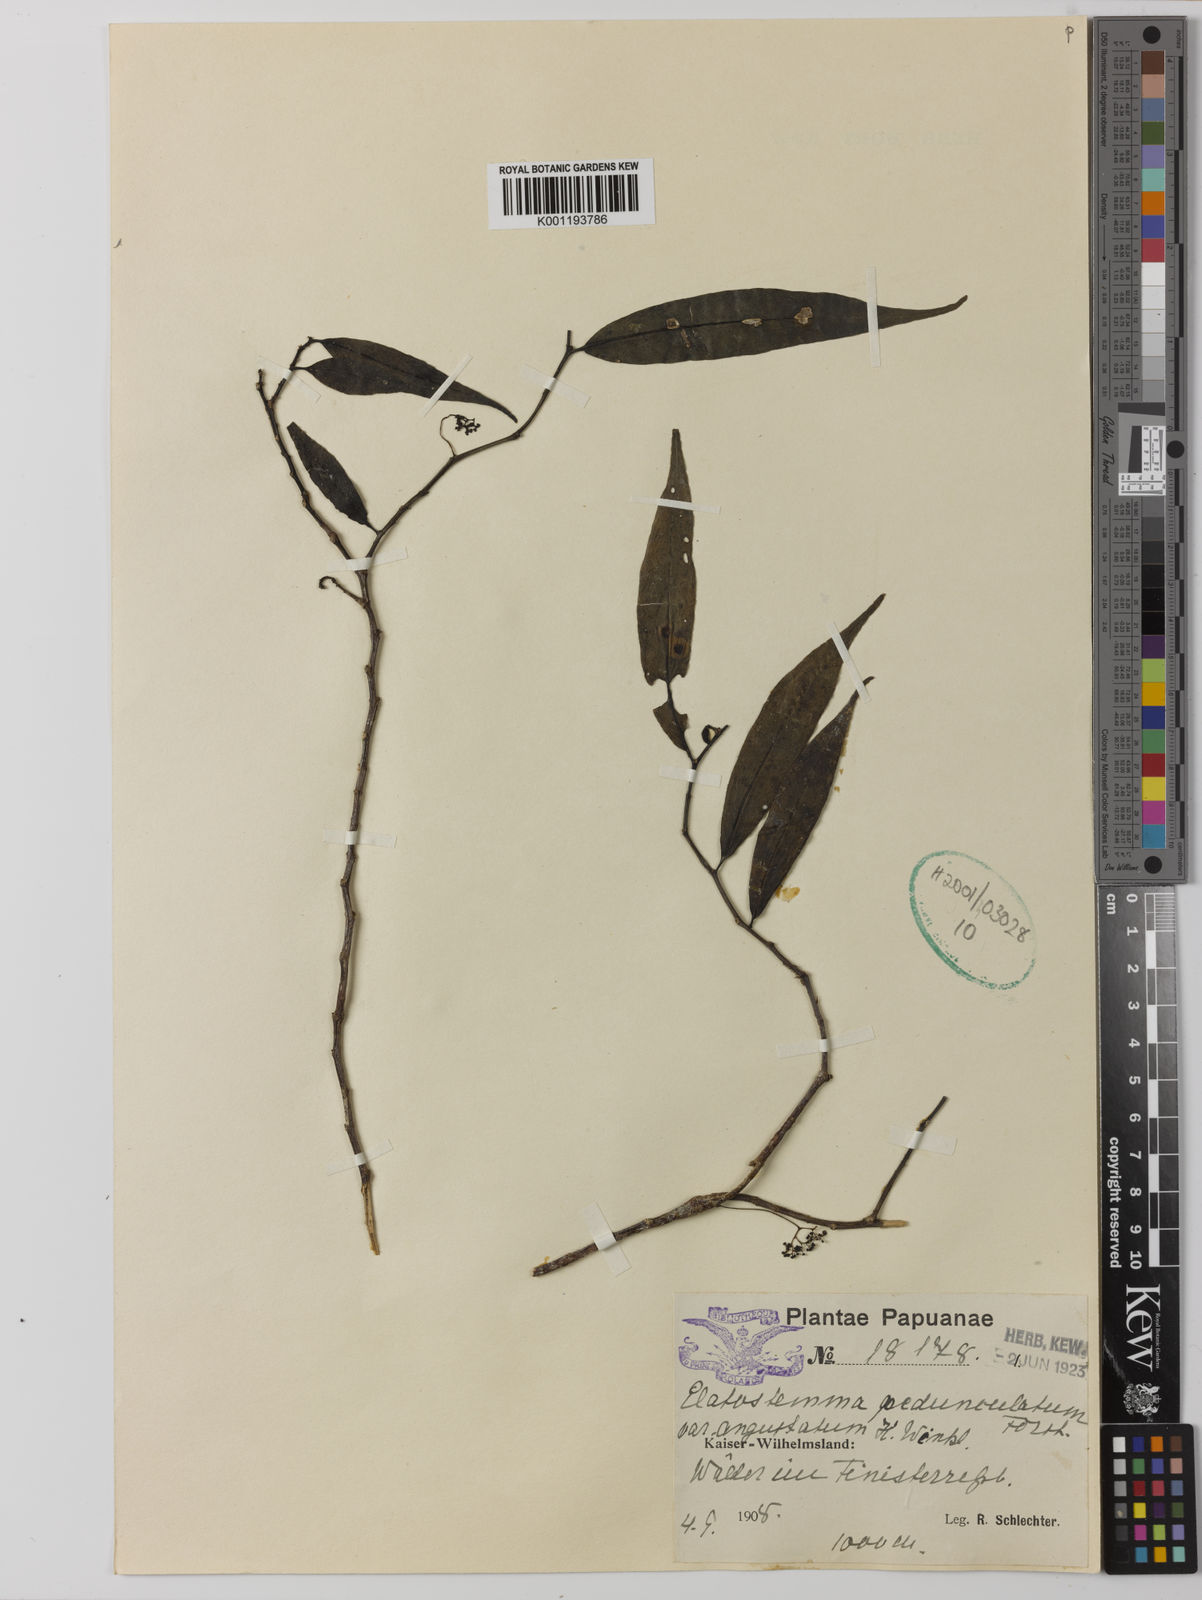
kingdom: Plantae
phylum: Tracheophyta
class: Magnoliopsida
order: Rosales
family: Urticaceae
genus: Procris
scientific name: Procris
